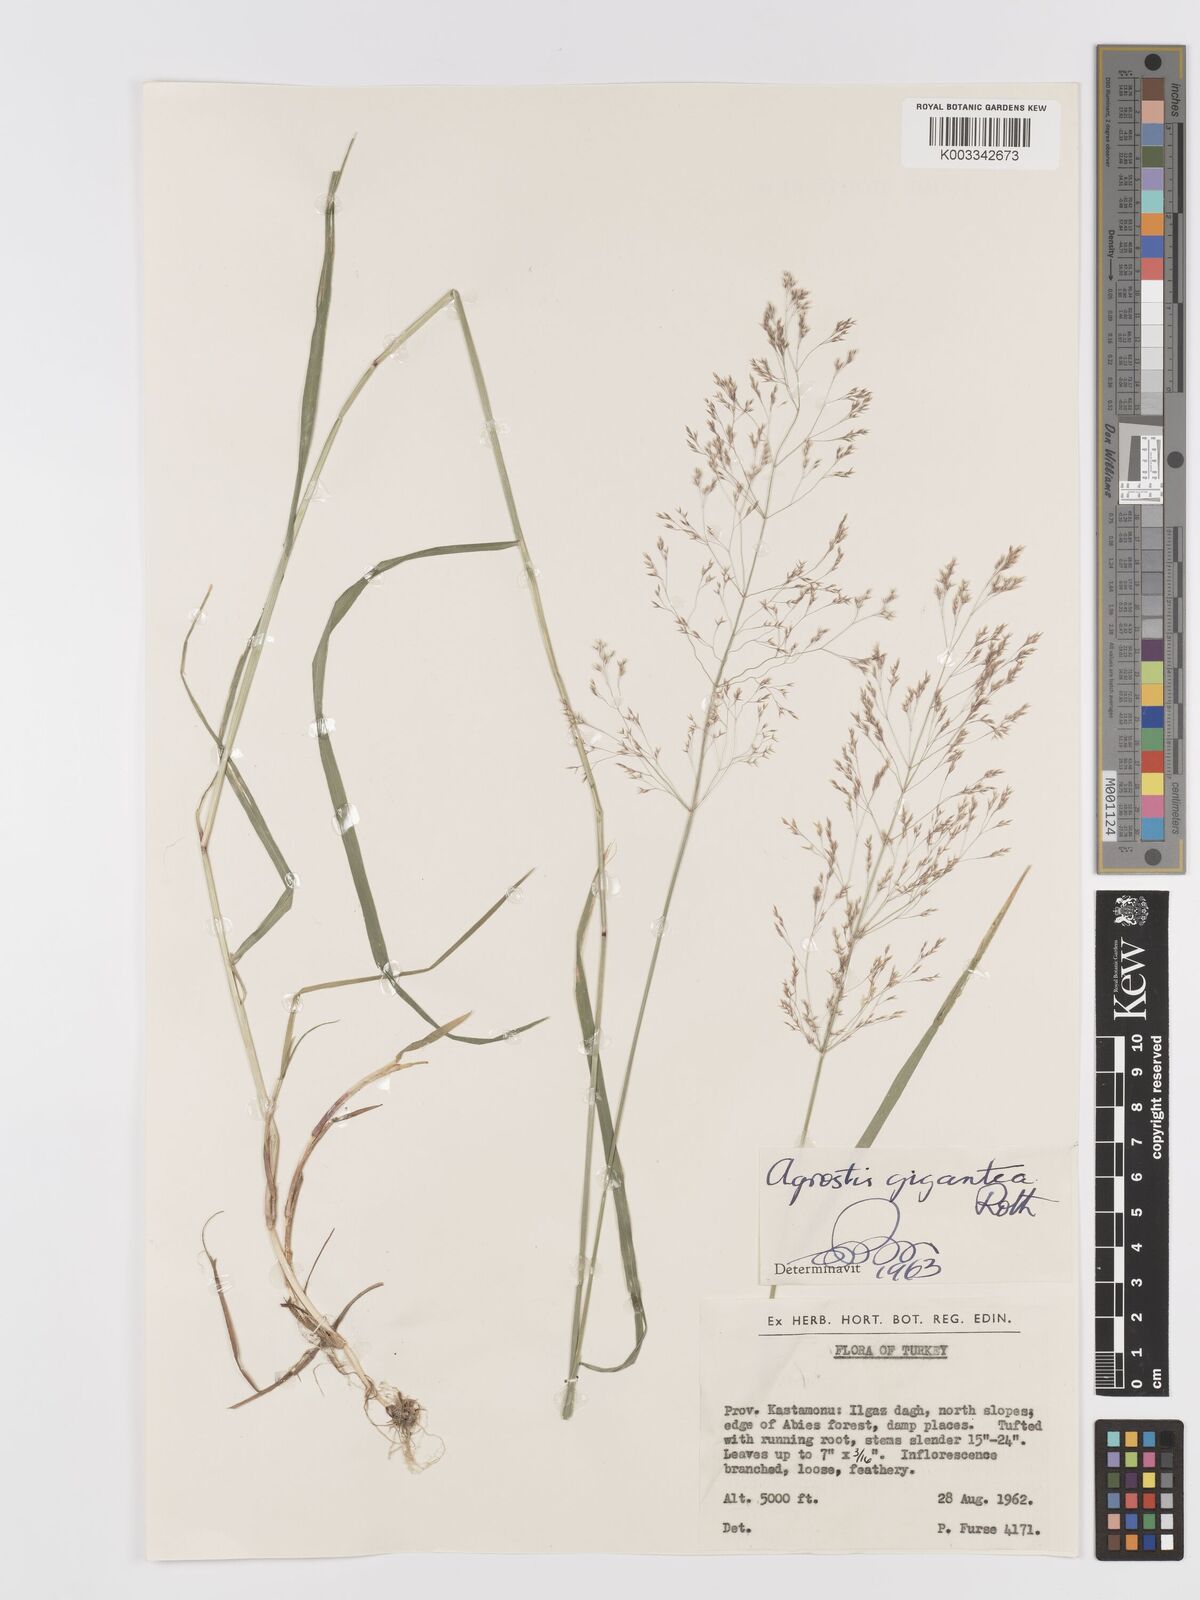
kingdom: Plantae
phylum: Tracheophyta
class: Liliopsida
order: Poales
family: Poaceae
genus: Agrostis
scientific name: Agrostis gigantea
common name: Black bent
